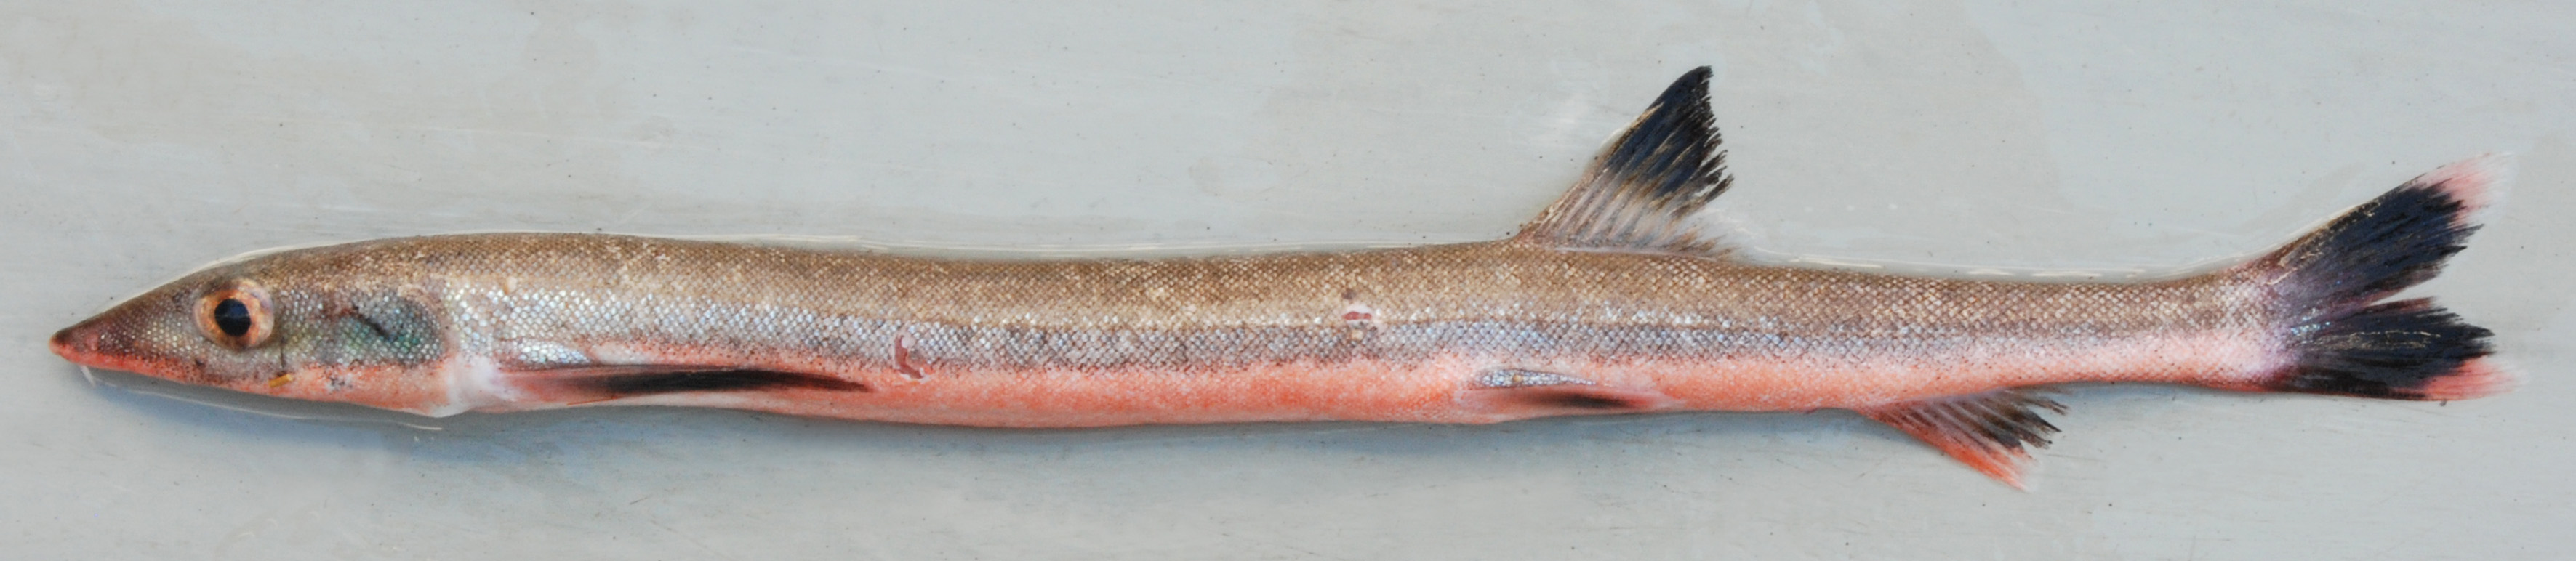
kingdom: Animalia
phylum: Chordata
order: Gonorynchiformes
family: Gonorynchidae
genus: Gonorynchus
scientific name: Gonorynchus gonorynchus
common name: Beaked salmon
